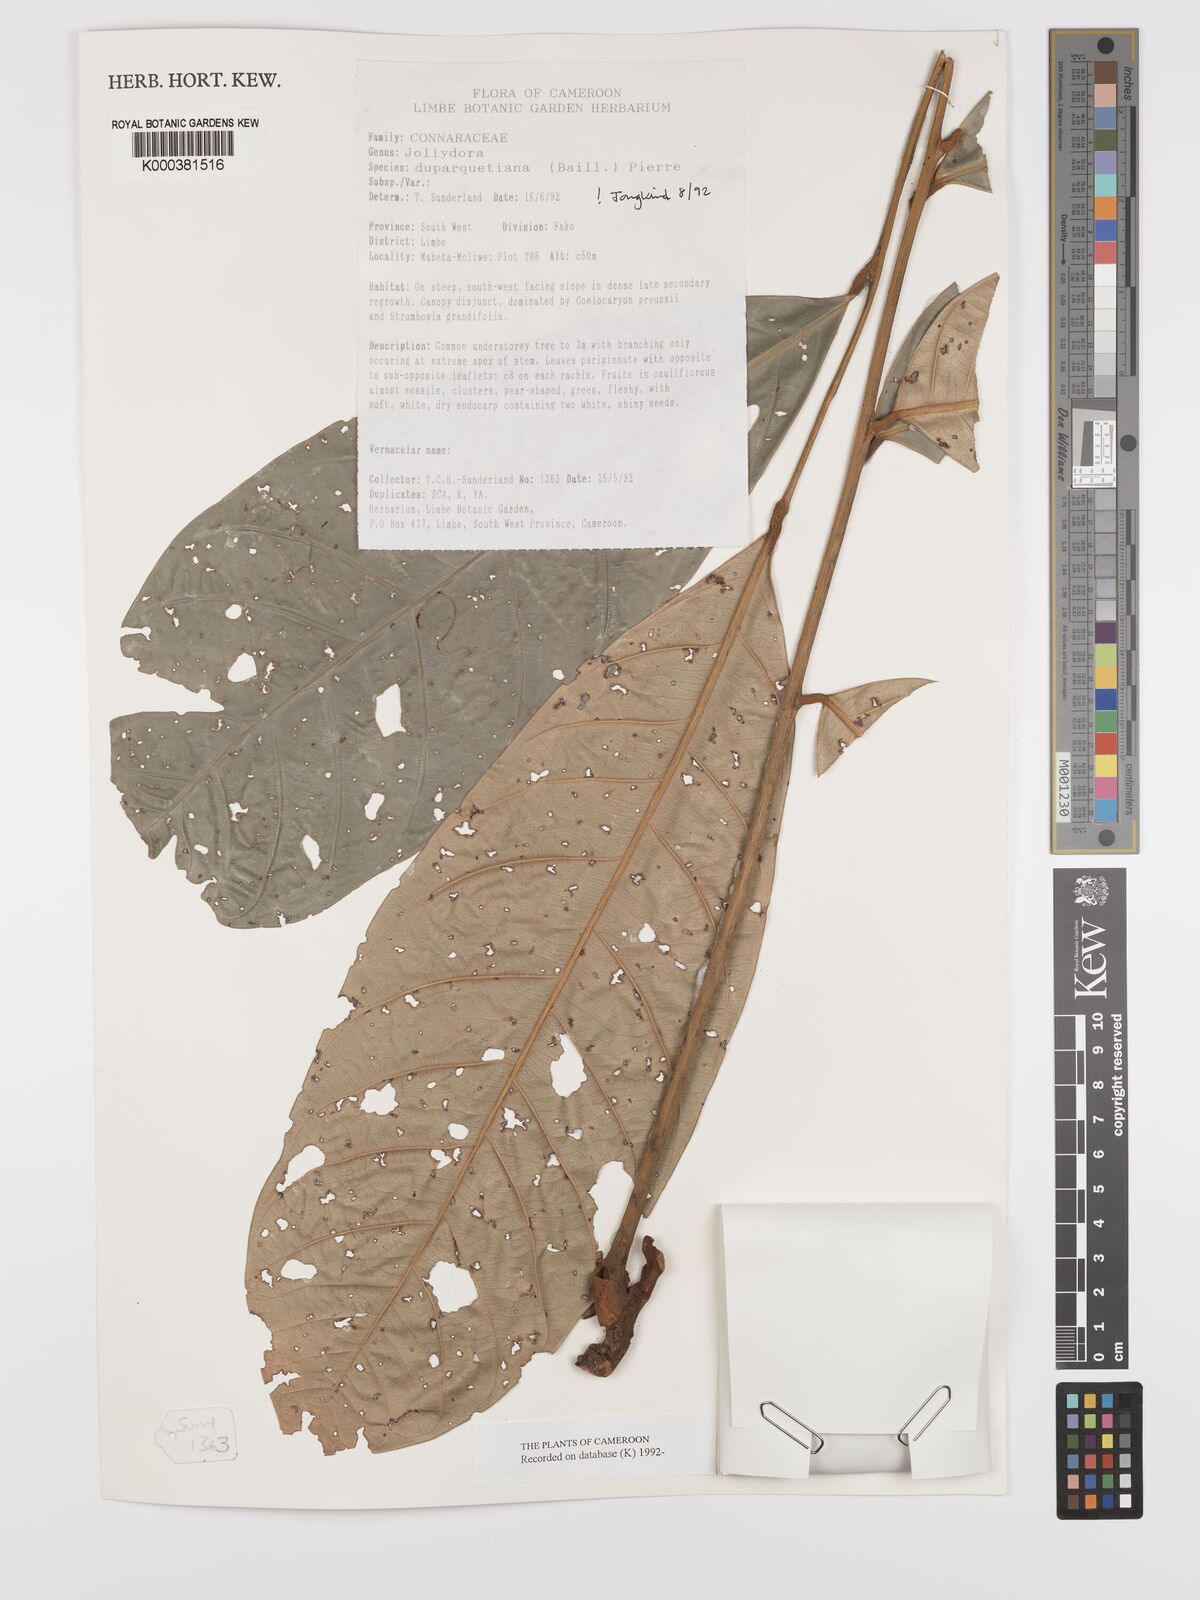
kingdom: Plantae
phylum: Tracheophyta
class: Magnoliopsida
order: Oxalidales
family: Connaraceae
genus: Jollydora
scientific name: Jollydora duparquetiana
